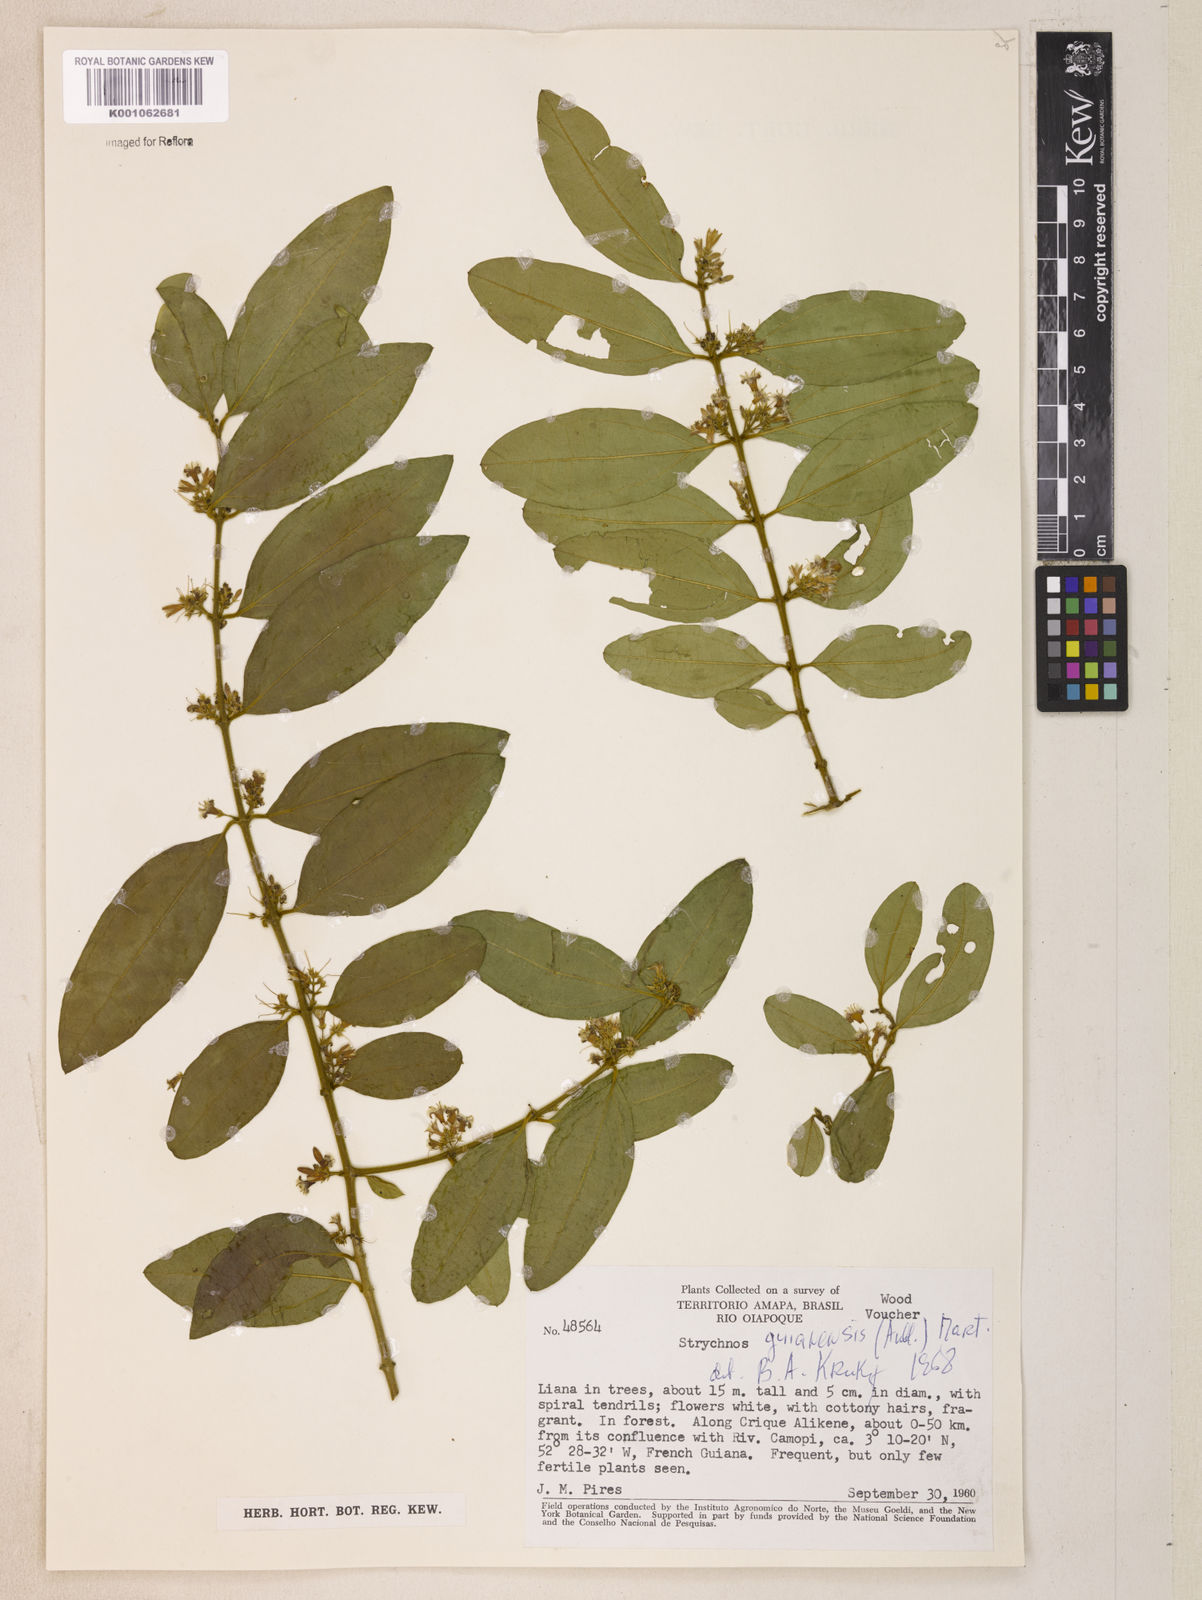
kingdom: Plantae
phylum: Tracheophyta
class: Magnoliopsida
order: Gentianales
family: Loganiaceae
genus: Strychnos
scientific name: Strychnos guianensis
